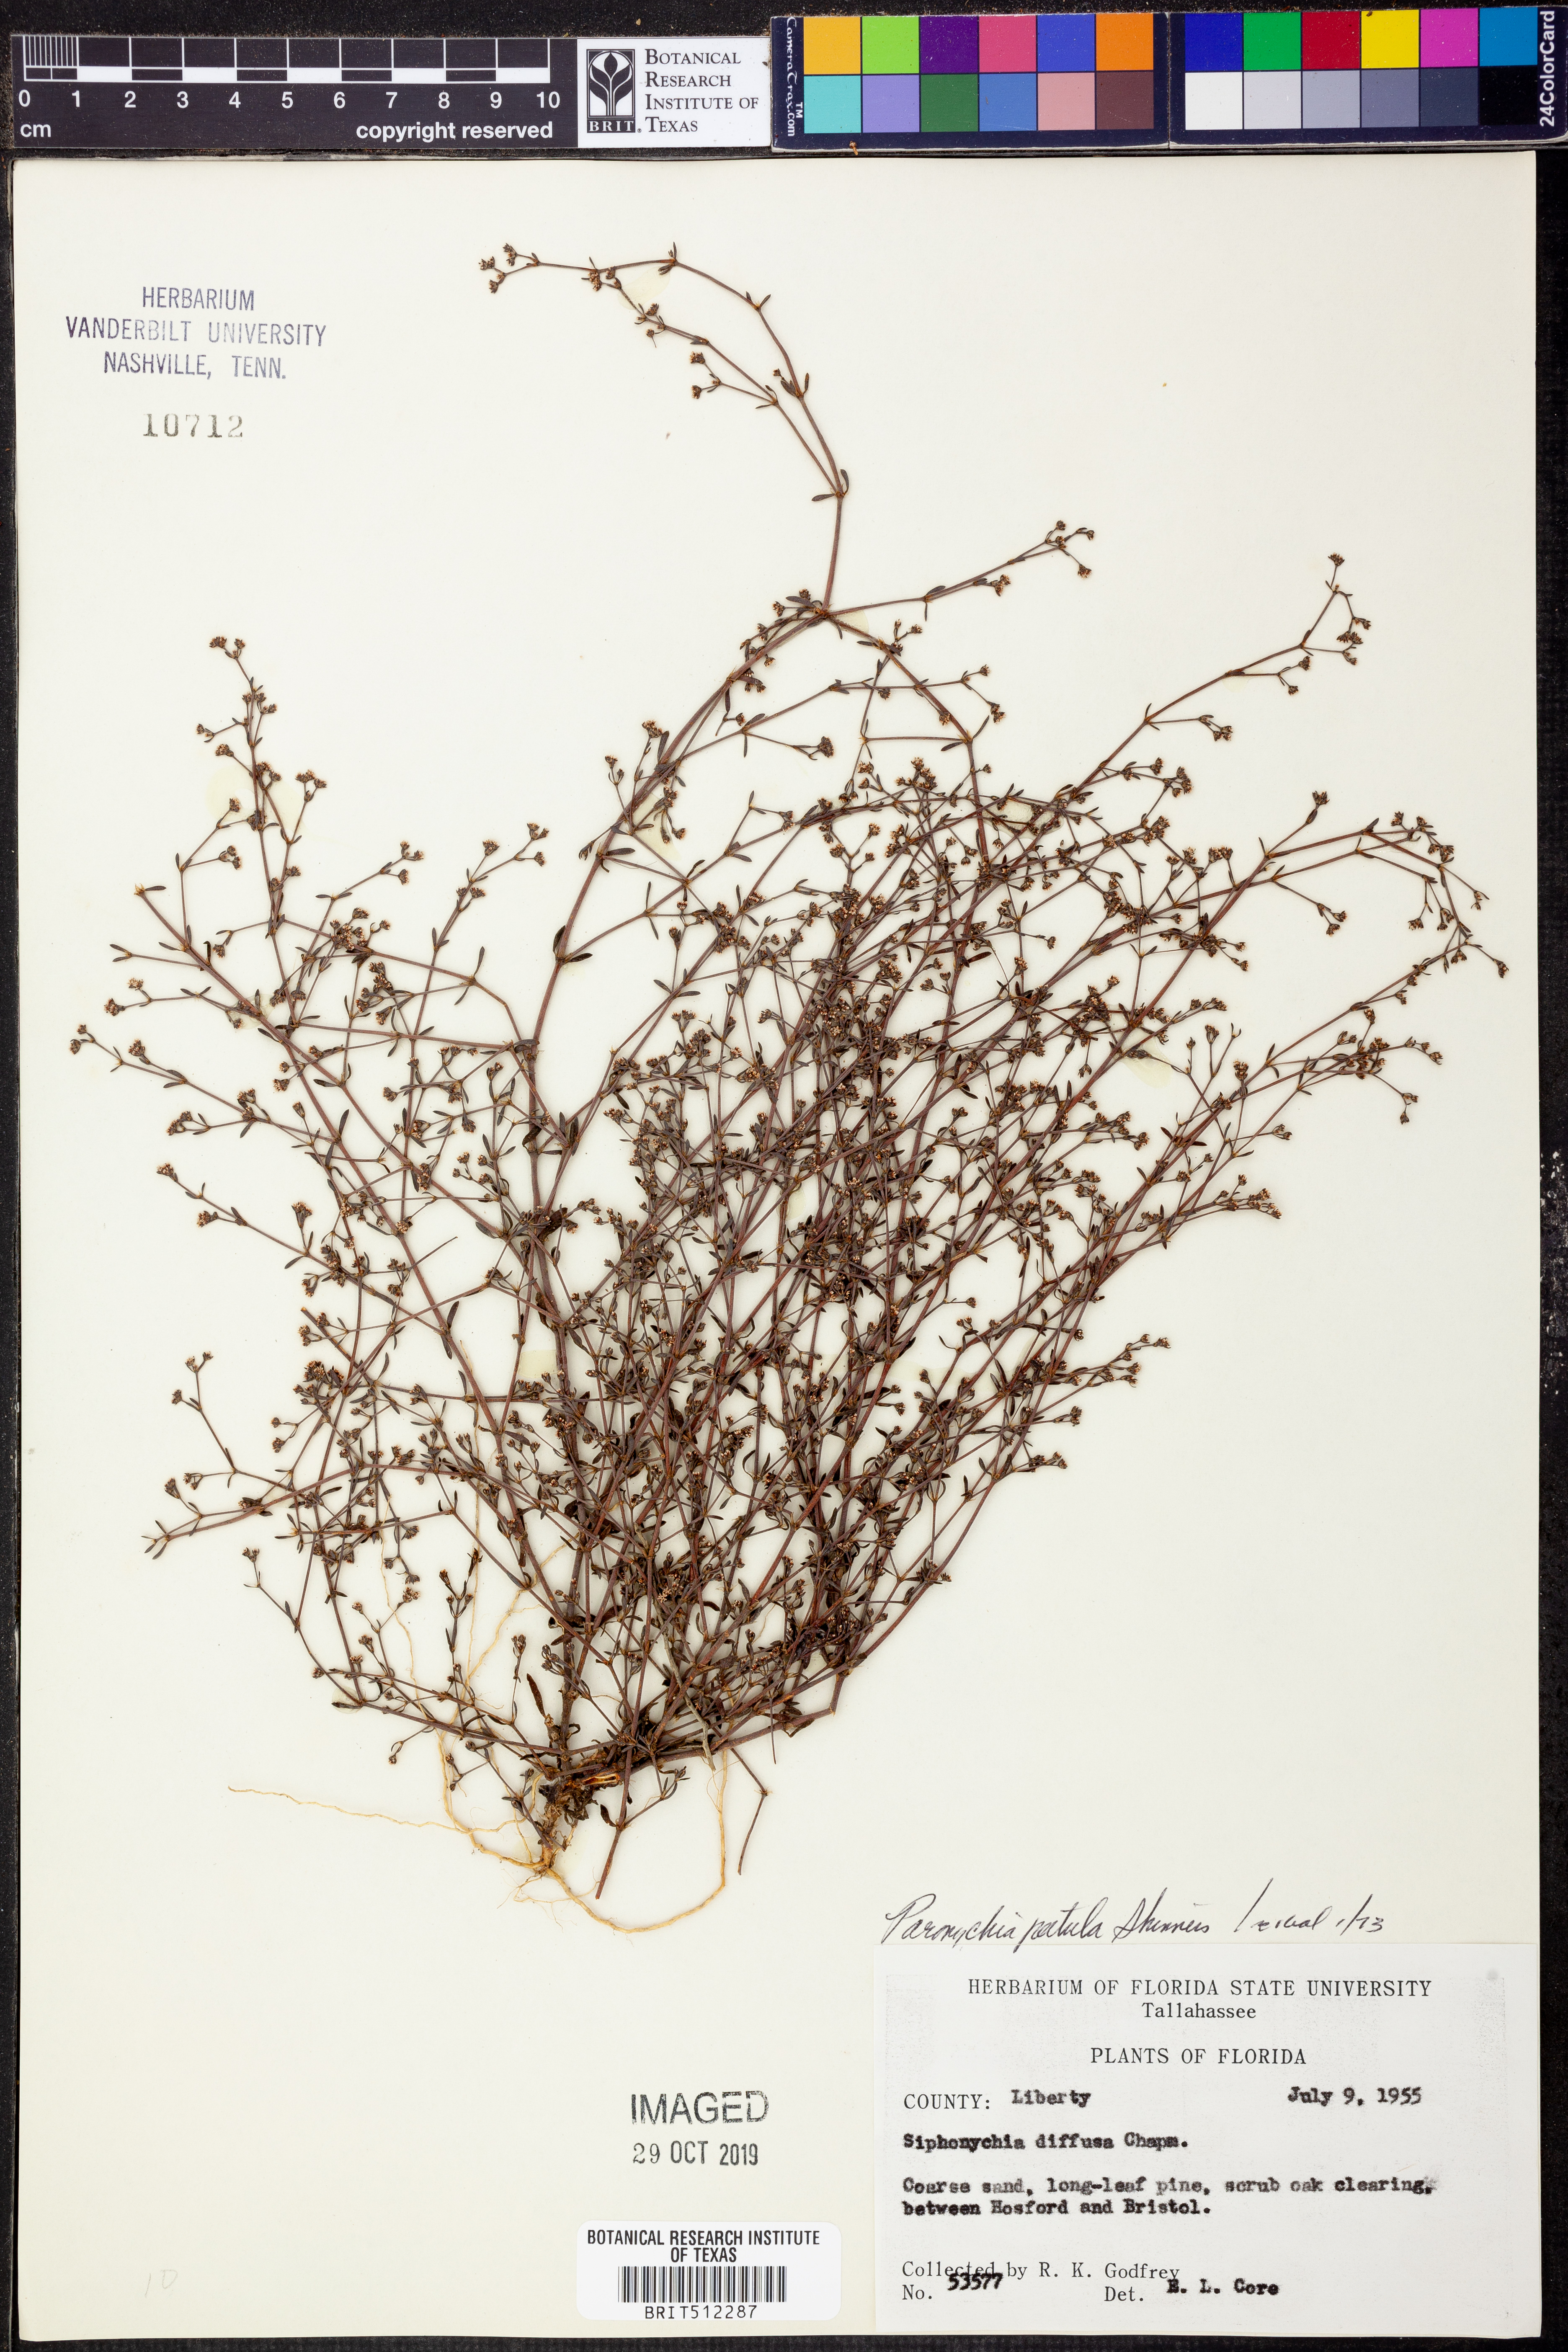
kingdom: Plantae
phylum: Tracheophyta
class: Magnoliopsida
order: Caryophyllales
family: Caryophyllaceae
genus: Paronychia
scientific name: Paronychia patula
